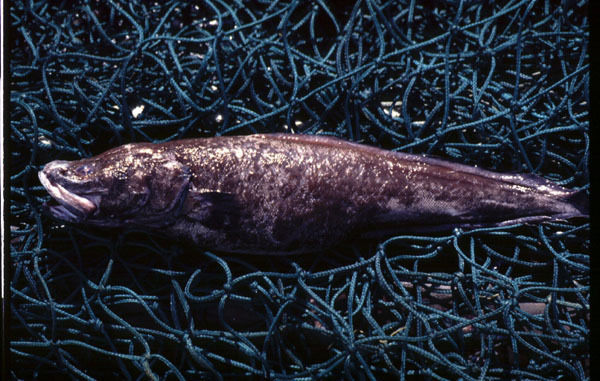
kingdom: Animalia
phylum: Chordata
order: Ophidiiformes
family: Bythitidae
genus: Cataetyx
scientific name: Cataetyx laticeps
